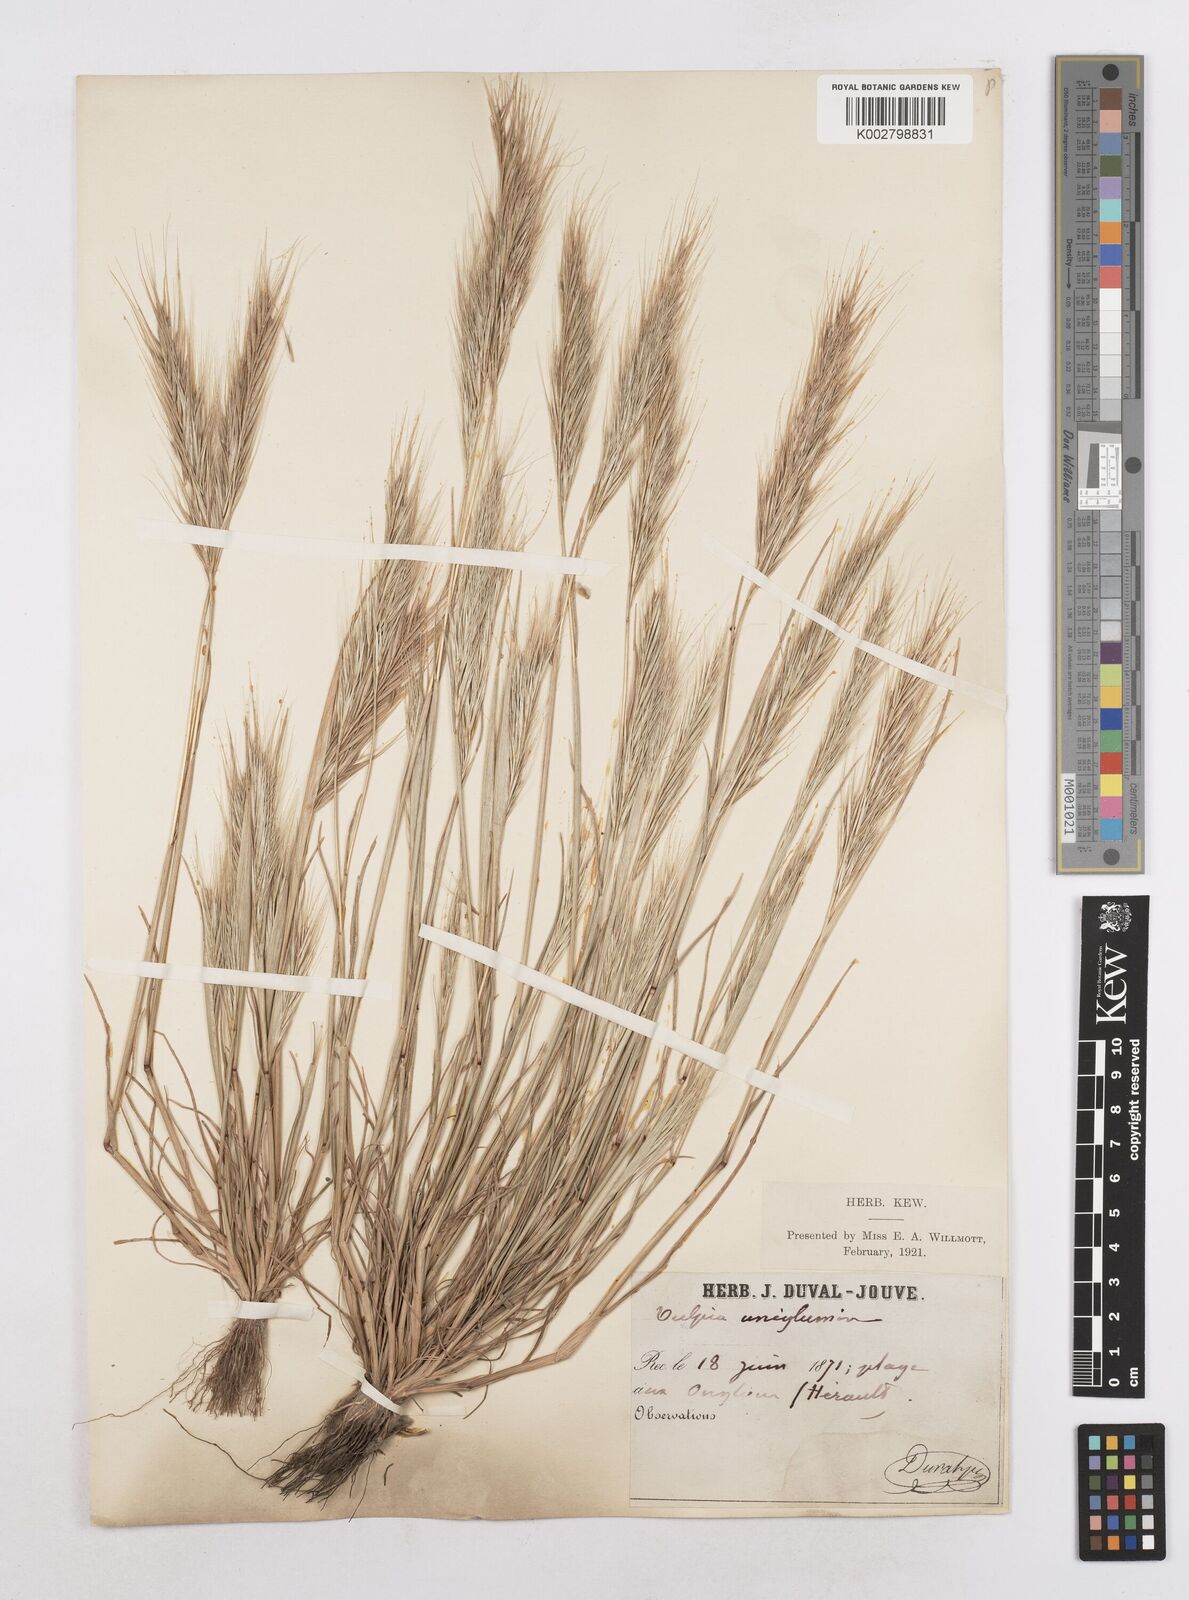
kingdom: Plantae
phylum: Tracheophyta
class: Liliopsida
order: Poales
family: Poaceae
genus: Festuca
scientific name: Festuca membranacea
